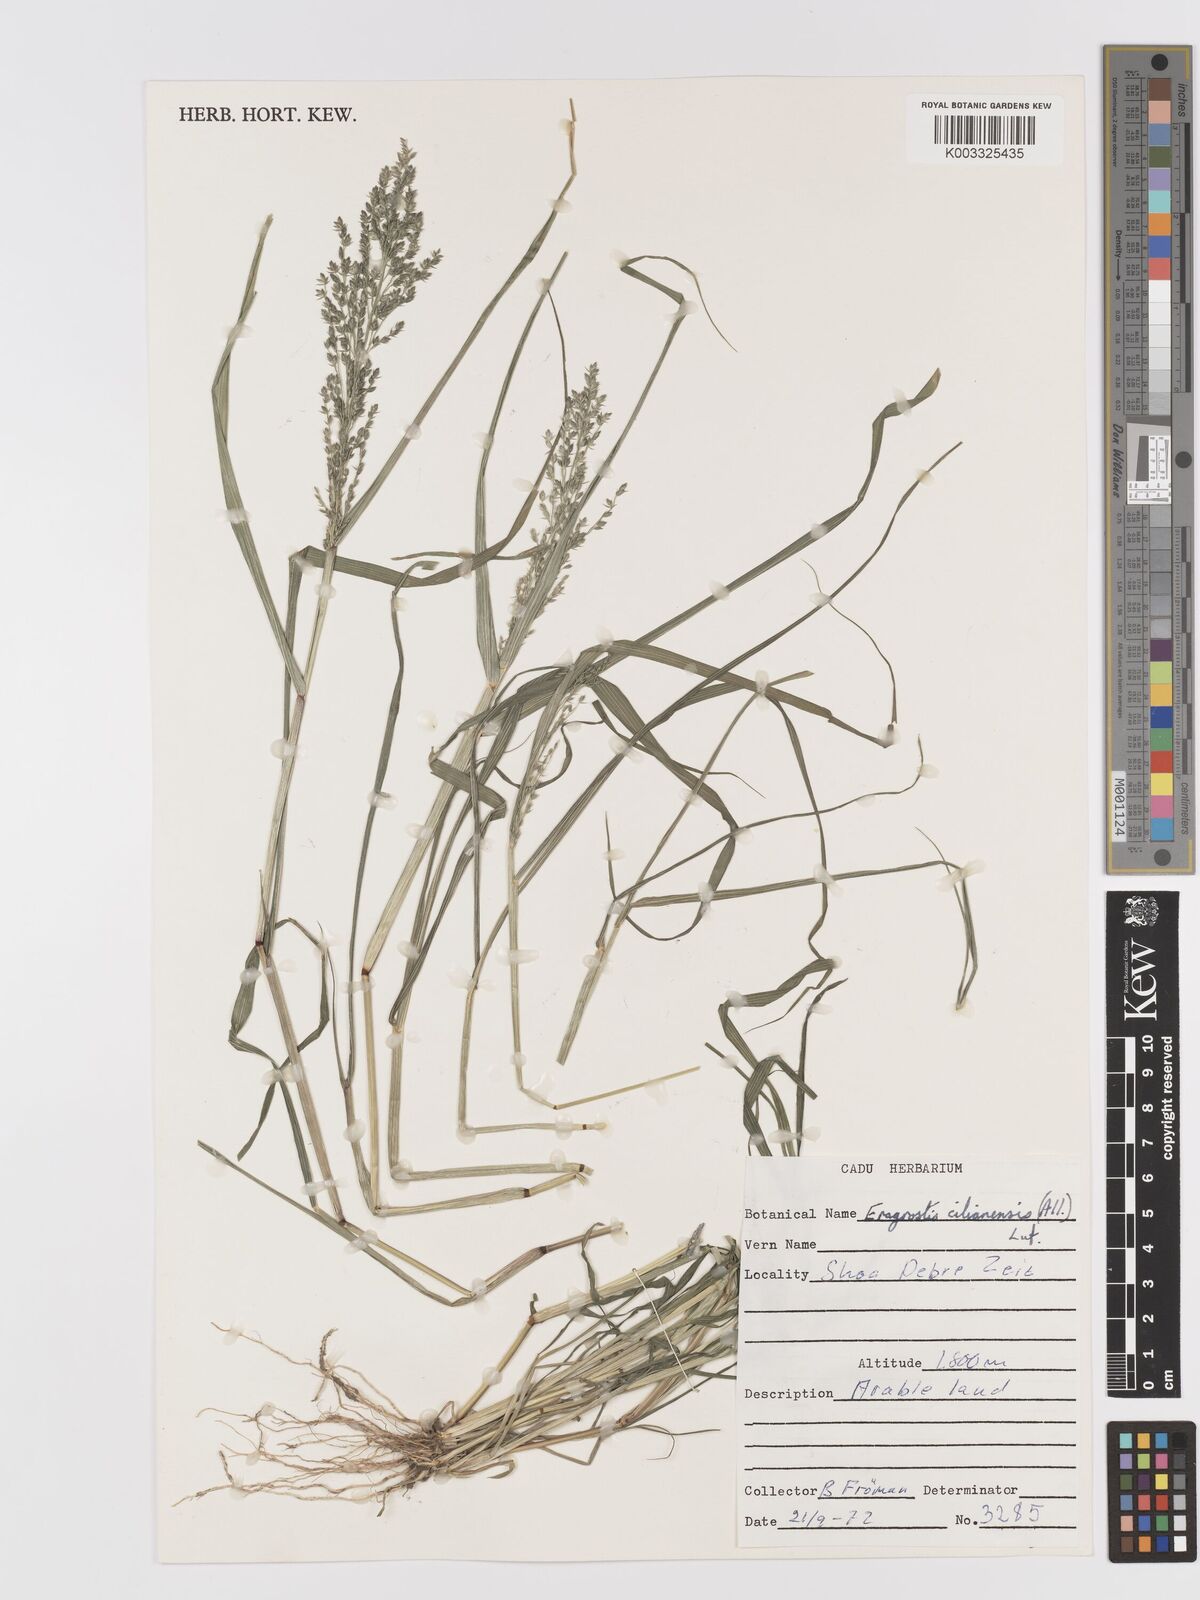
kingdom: Plantae
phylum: Tracheophyta
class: Liliopsida
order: Poales
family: Poaceae
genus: Eragrostis
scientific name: Eragrostis cilianensis
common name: Stinkgrass
